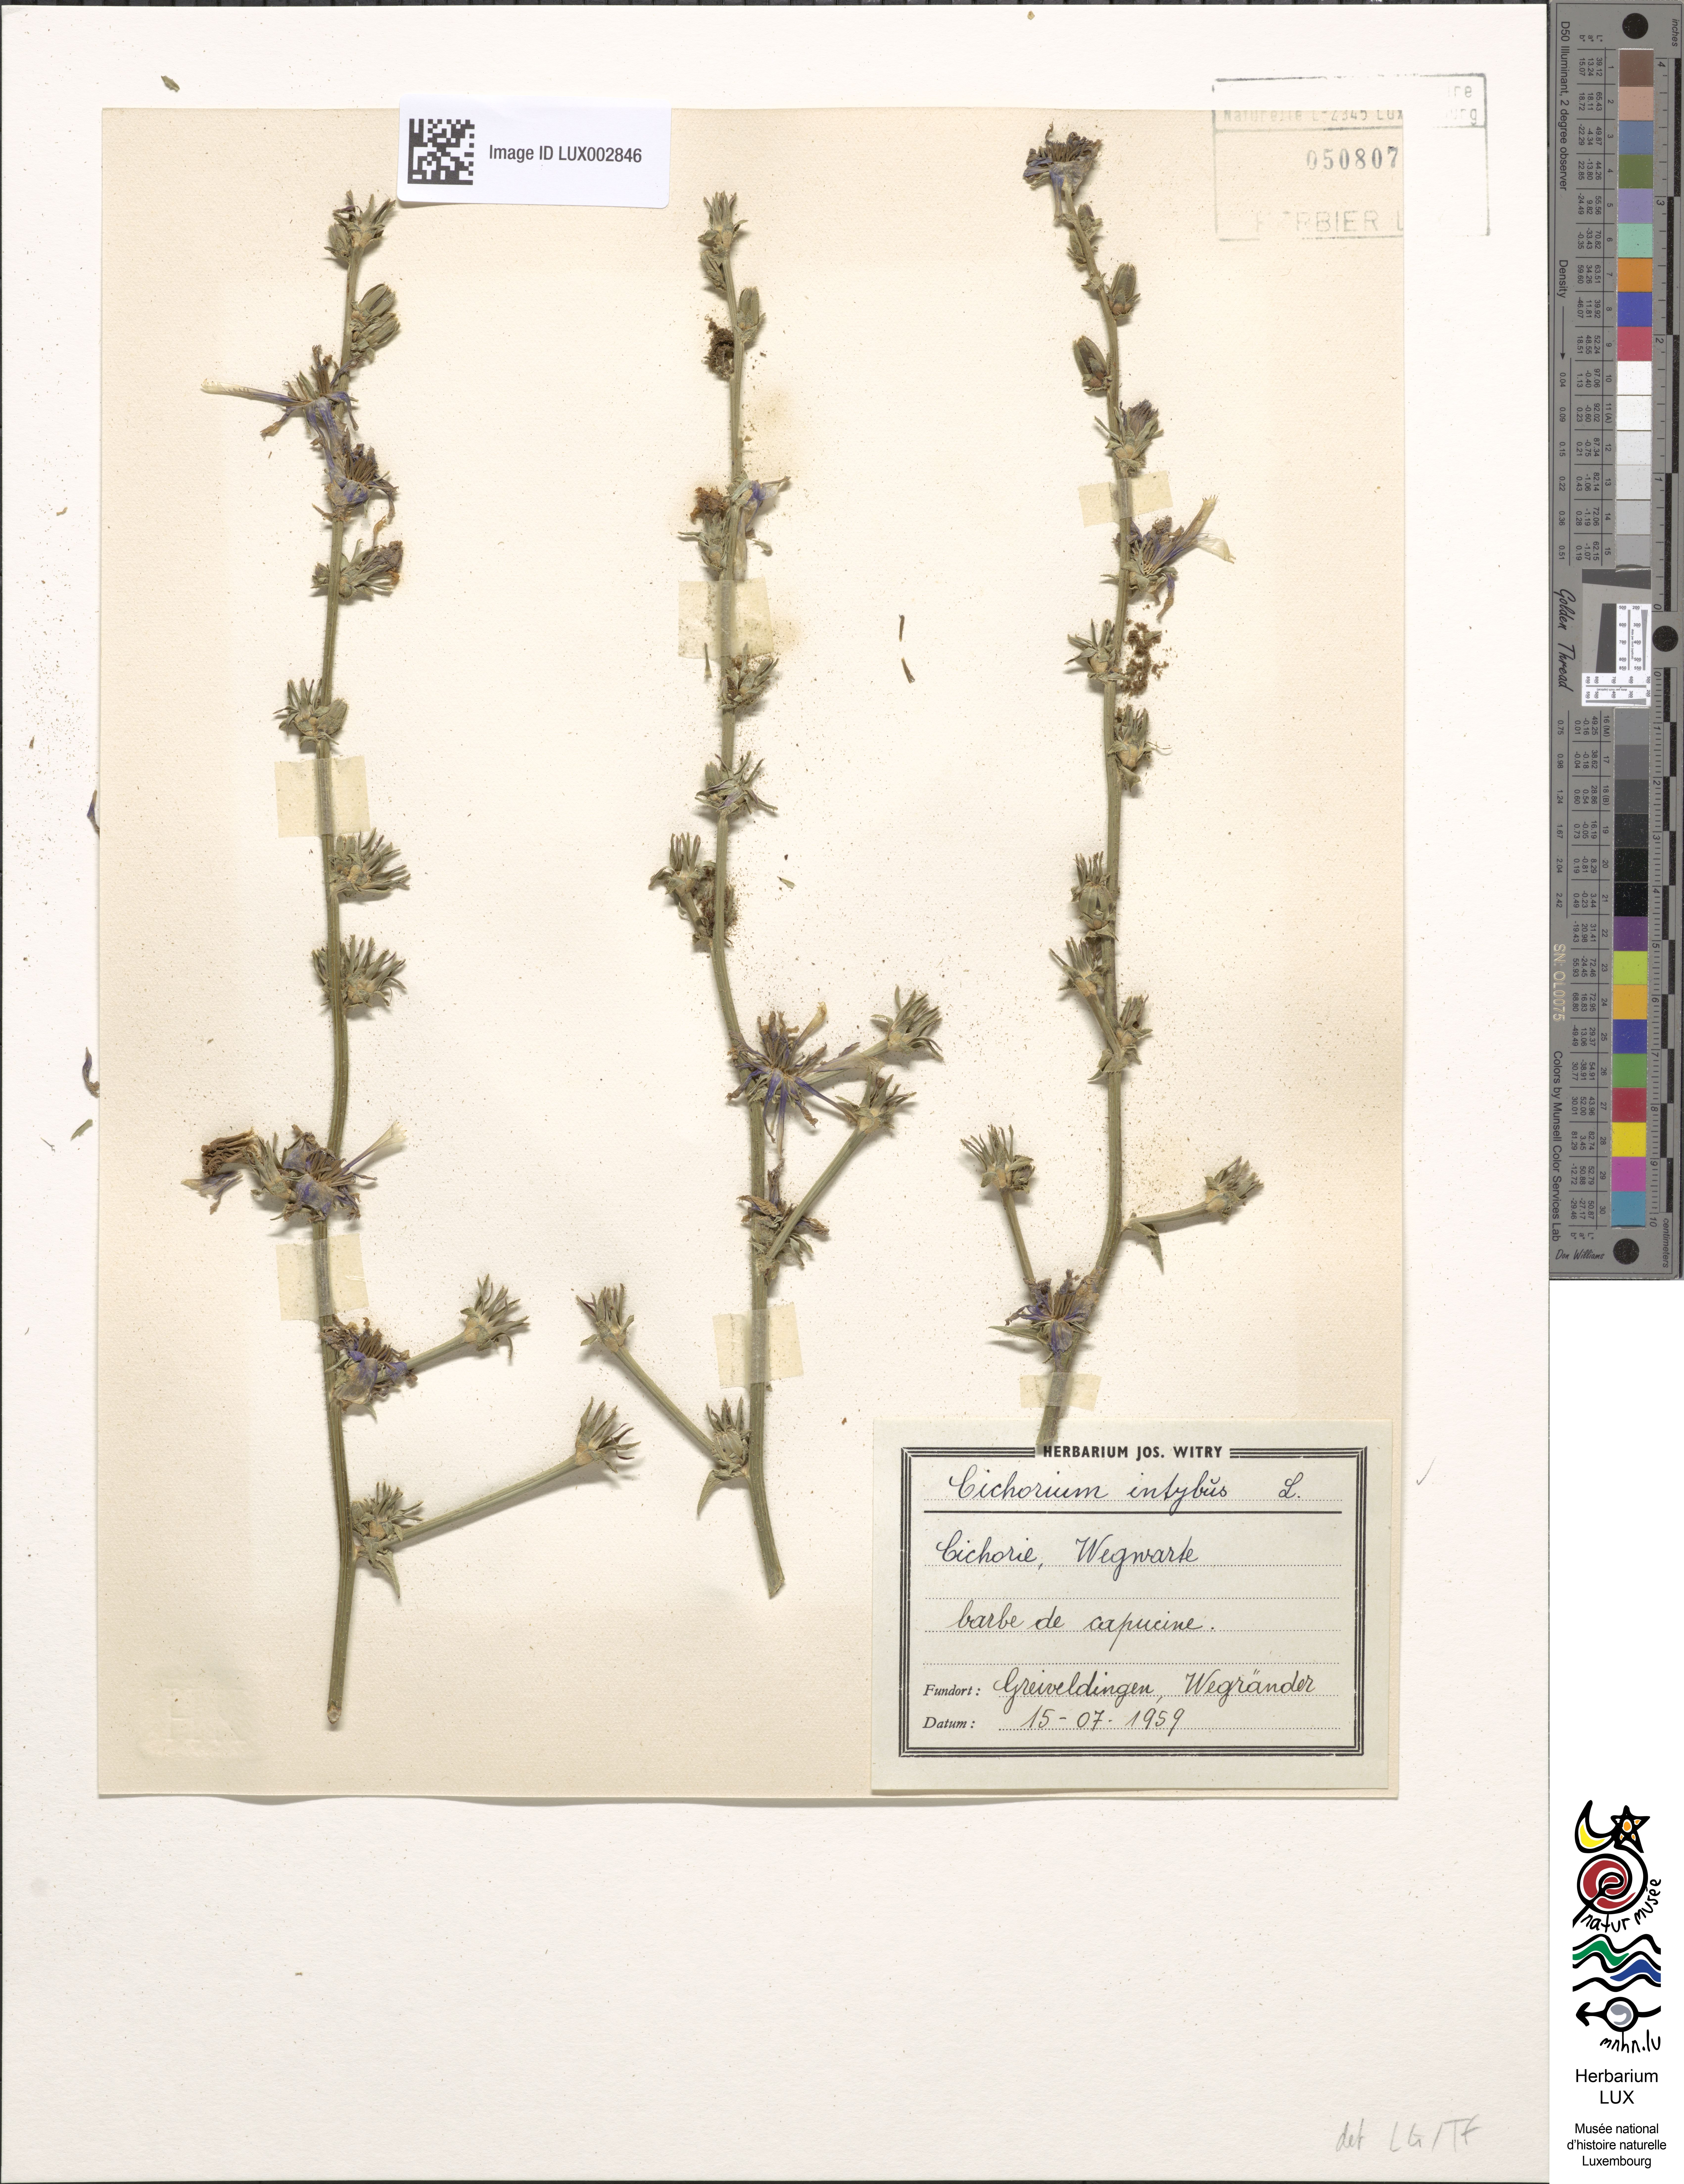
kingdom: Plantae
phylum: Tracheophyta
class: Magnoliopsida
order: Asterales
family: Asteraceae
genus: Cichorium
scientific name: Cichorium intybus
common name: Chicory
